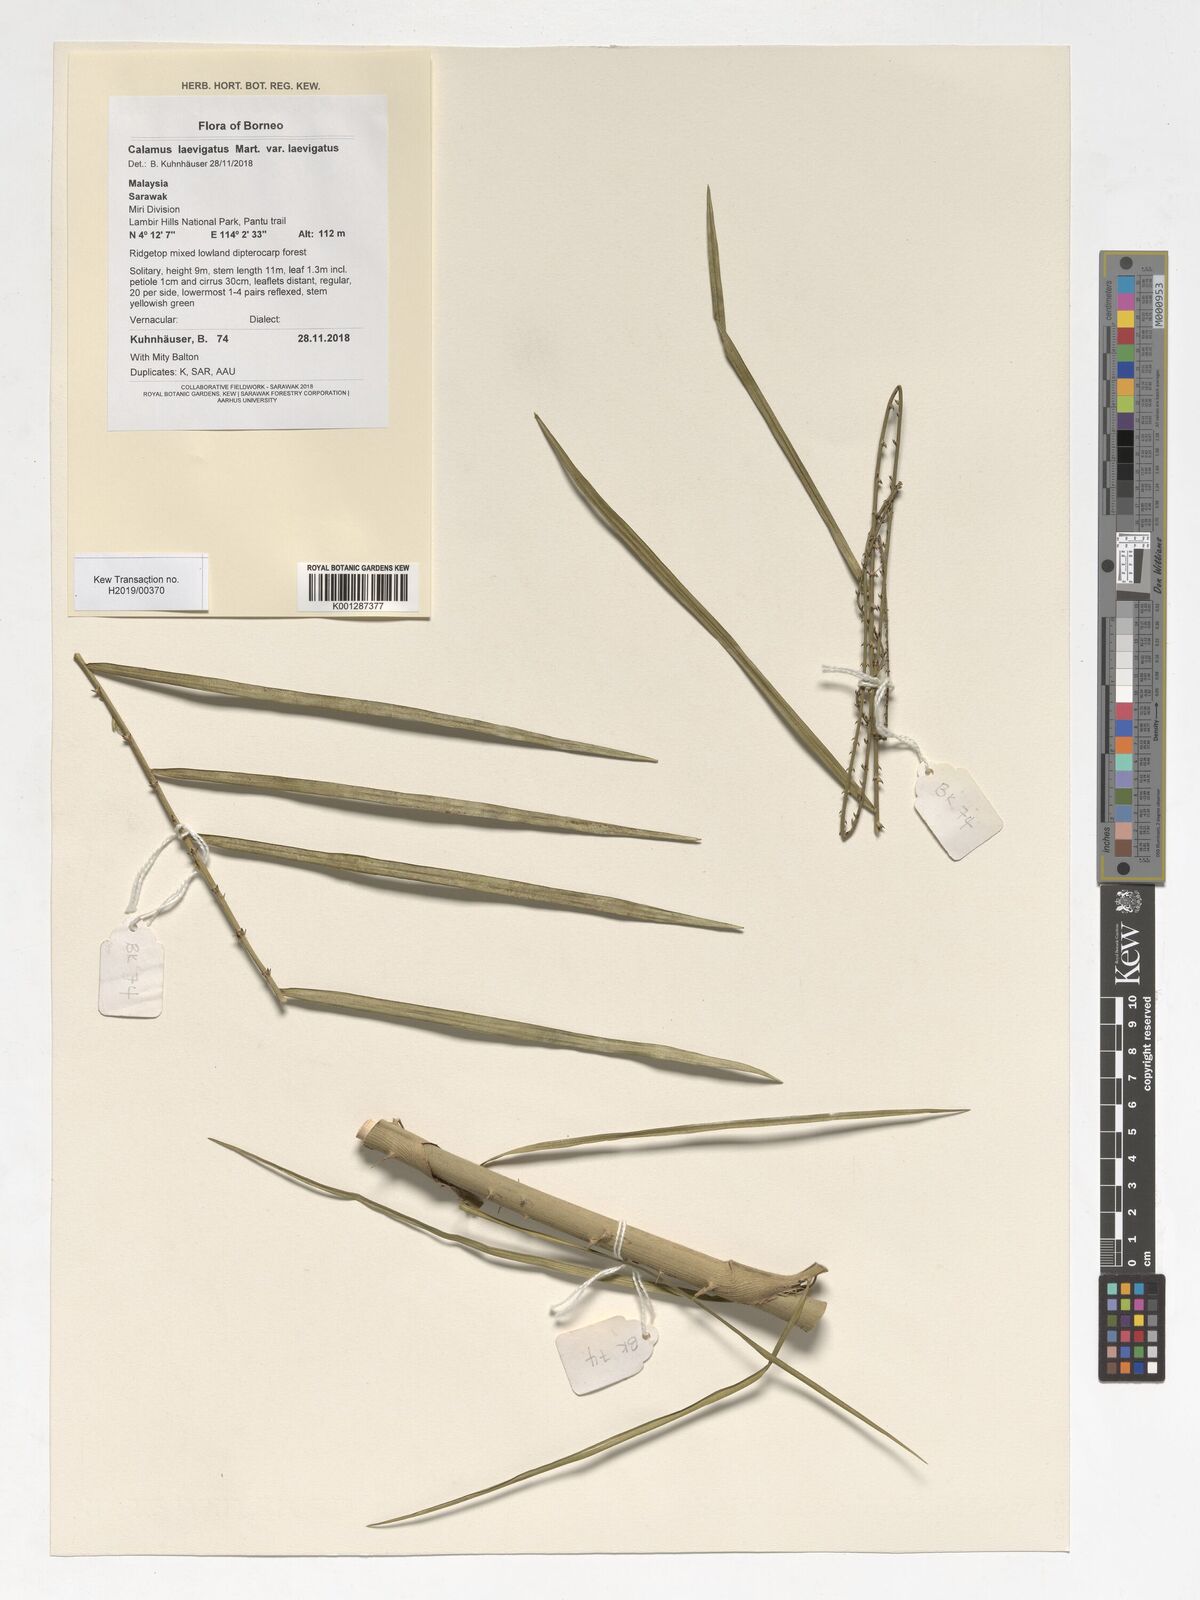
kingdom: Plantae
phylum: Tracheophyta
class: Liliopsida
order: Arecales
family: Arecaceae
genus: Calamus
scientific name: Calamus plicatus
